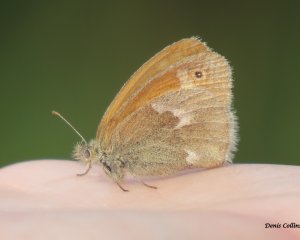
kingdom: Animalia
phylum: Arthropoda
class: Insecta
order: Lepidoptera
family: Nymphalidae
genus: Coenonympha
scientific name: Coenonympha tullia
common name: Large Heath
